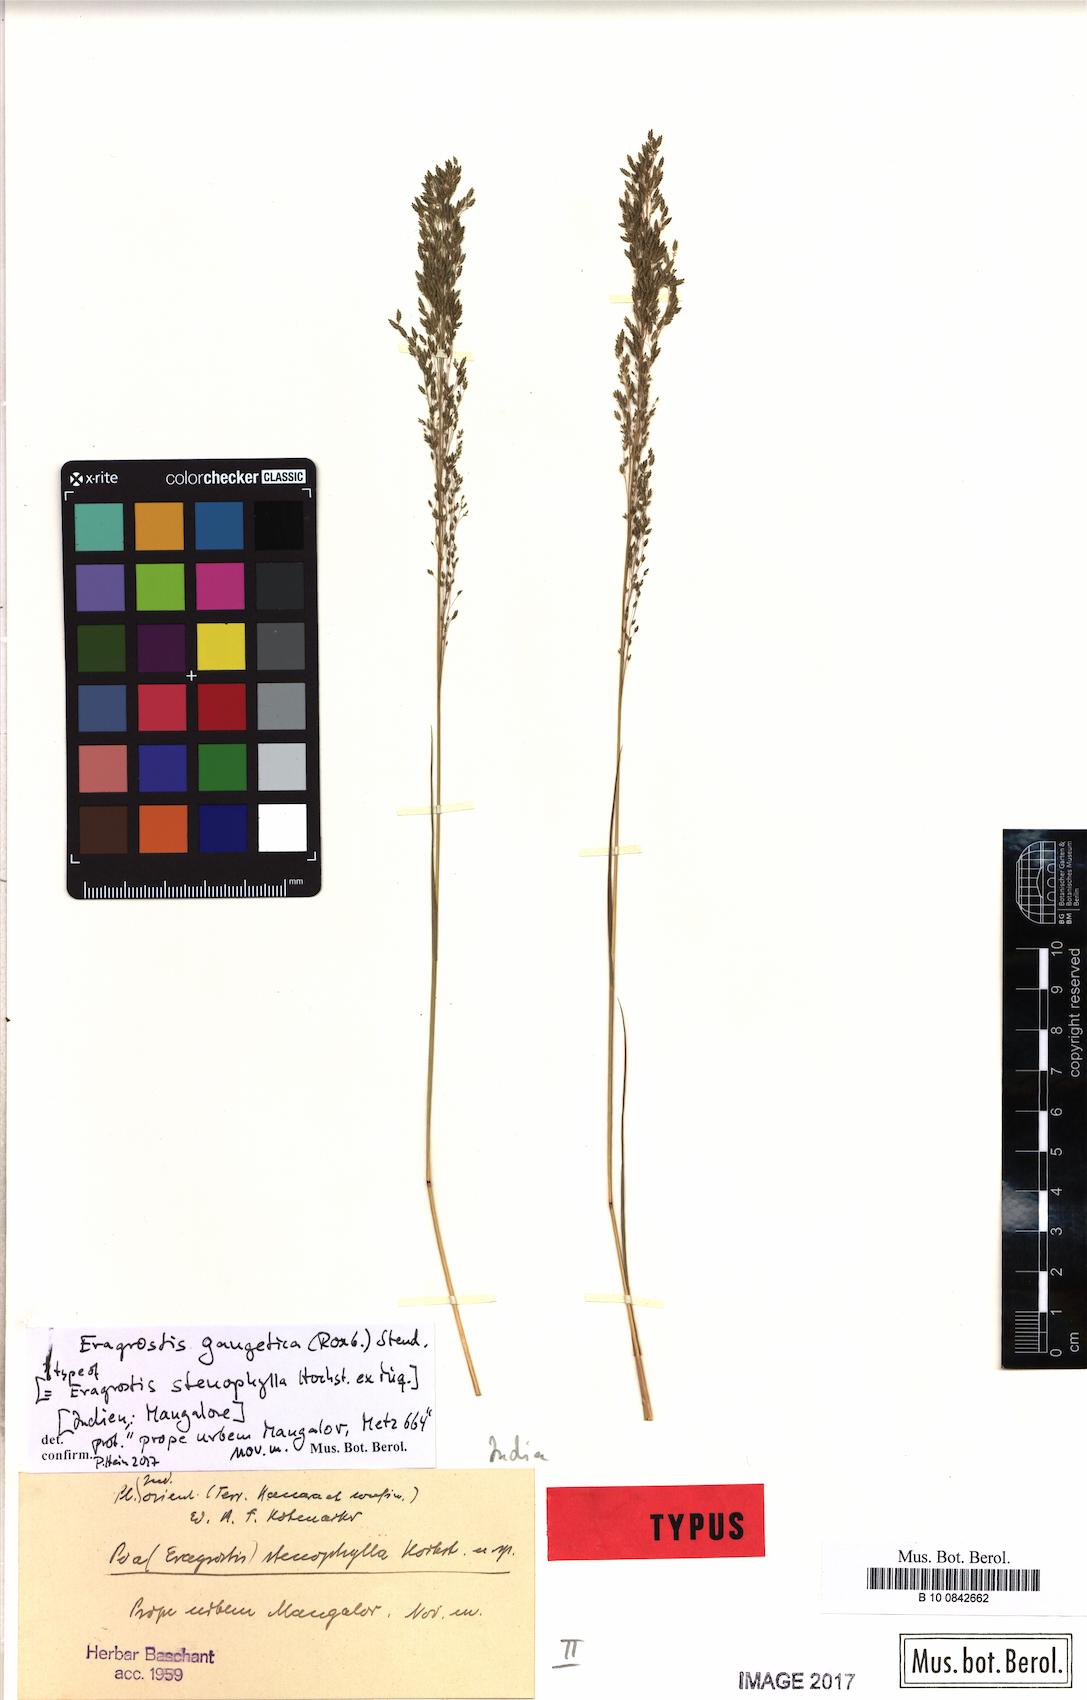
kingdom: Plantae
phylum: Tracheophyta
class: Liliopsida
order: Poales
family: Poaceae
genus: Eragrostis
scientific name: Eragrostis gangetica
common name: Slimflower lovegrass
